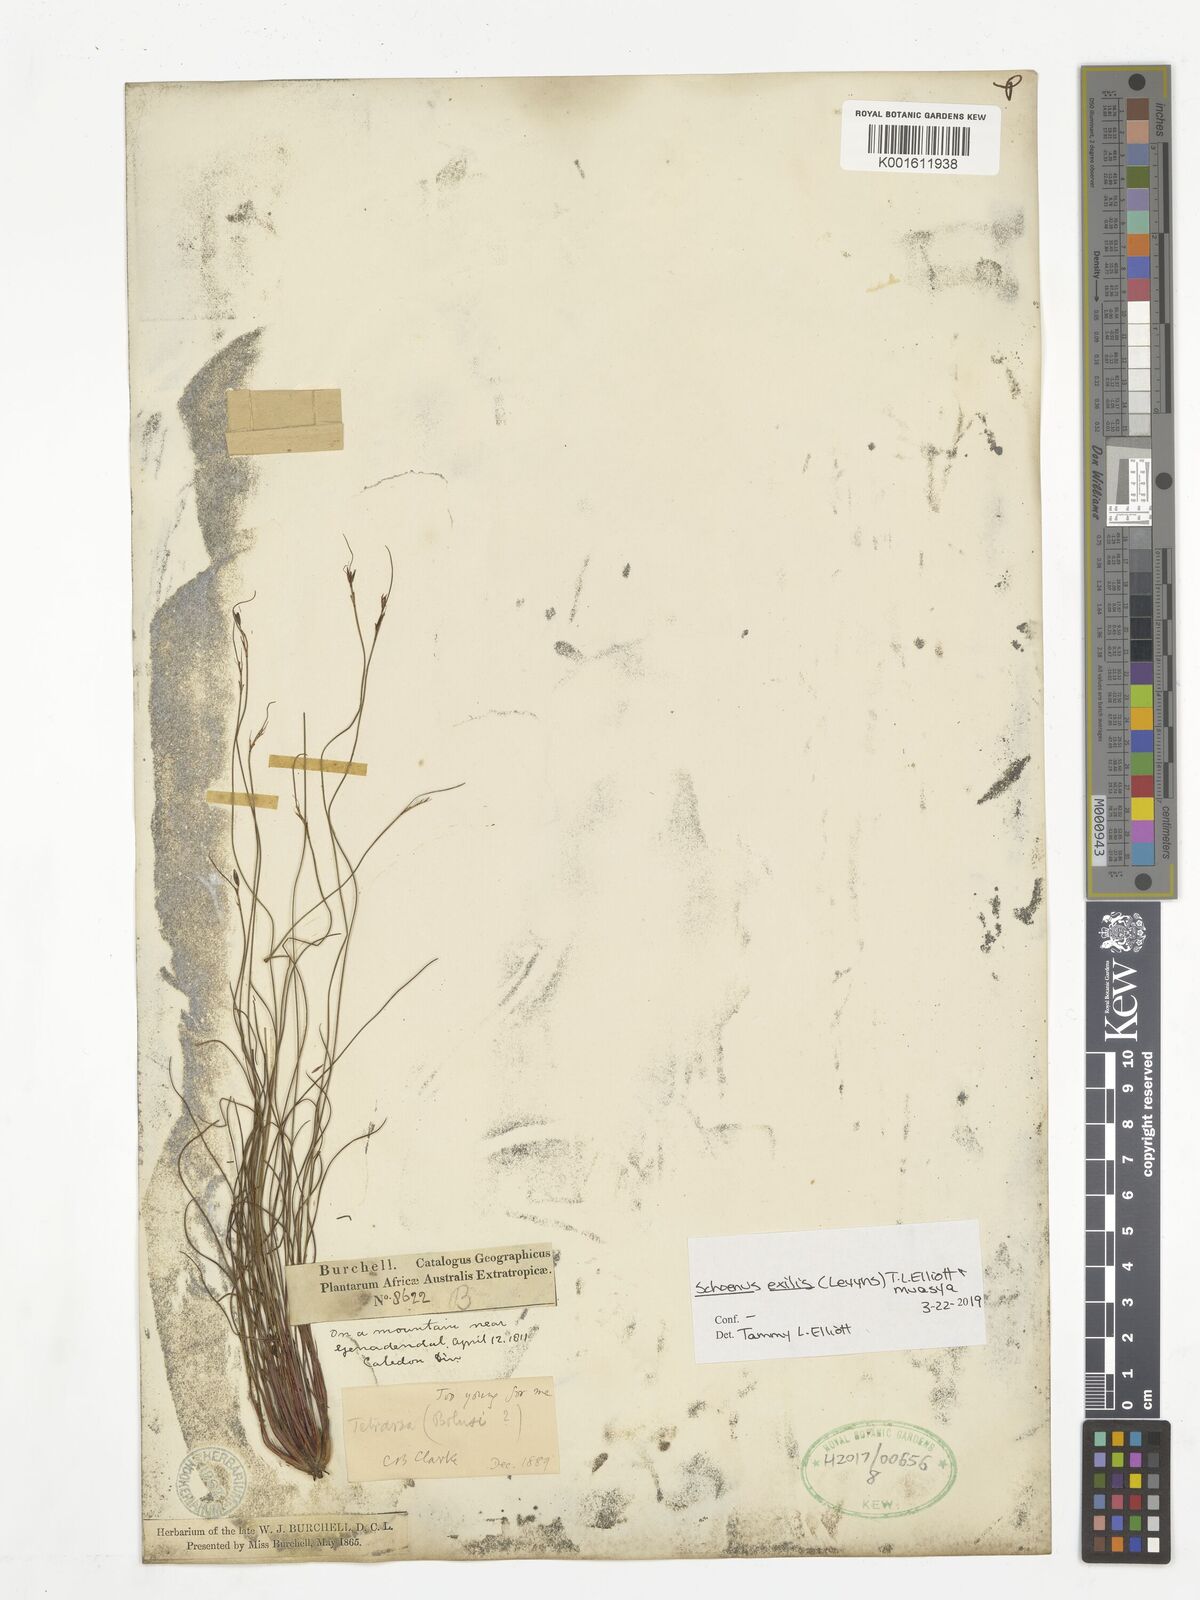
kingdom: Plantae
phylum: Tracheophyta
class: Liliopsida
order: Poales
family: Cyperaceae
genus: Schoenus
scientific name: Schoenus exilis
